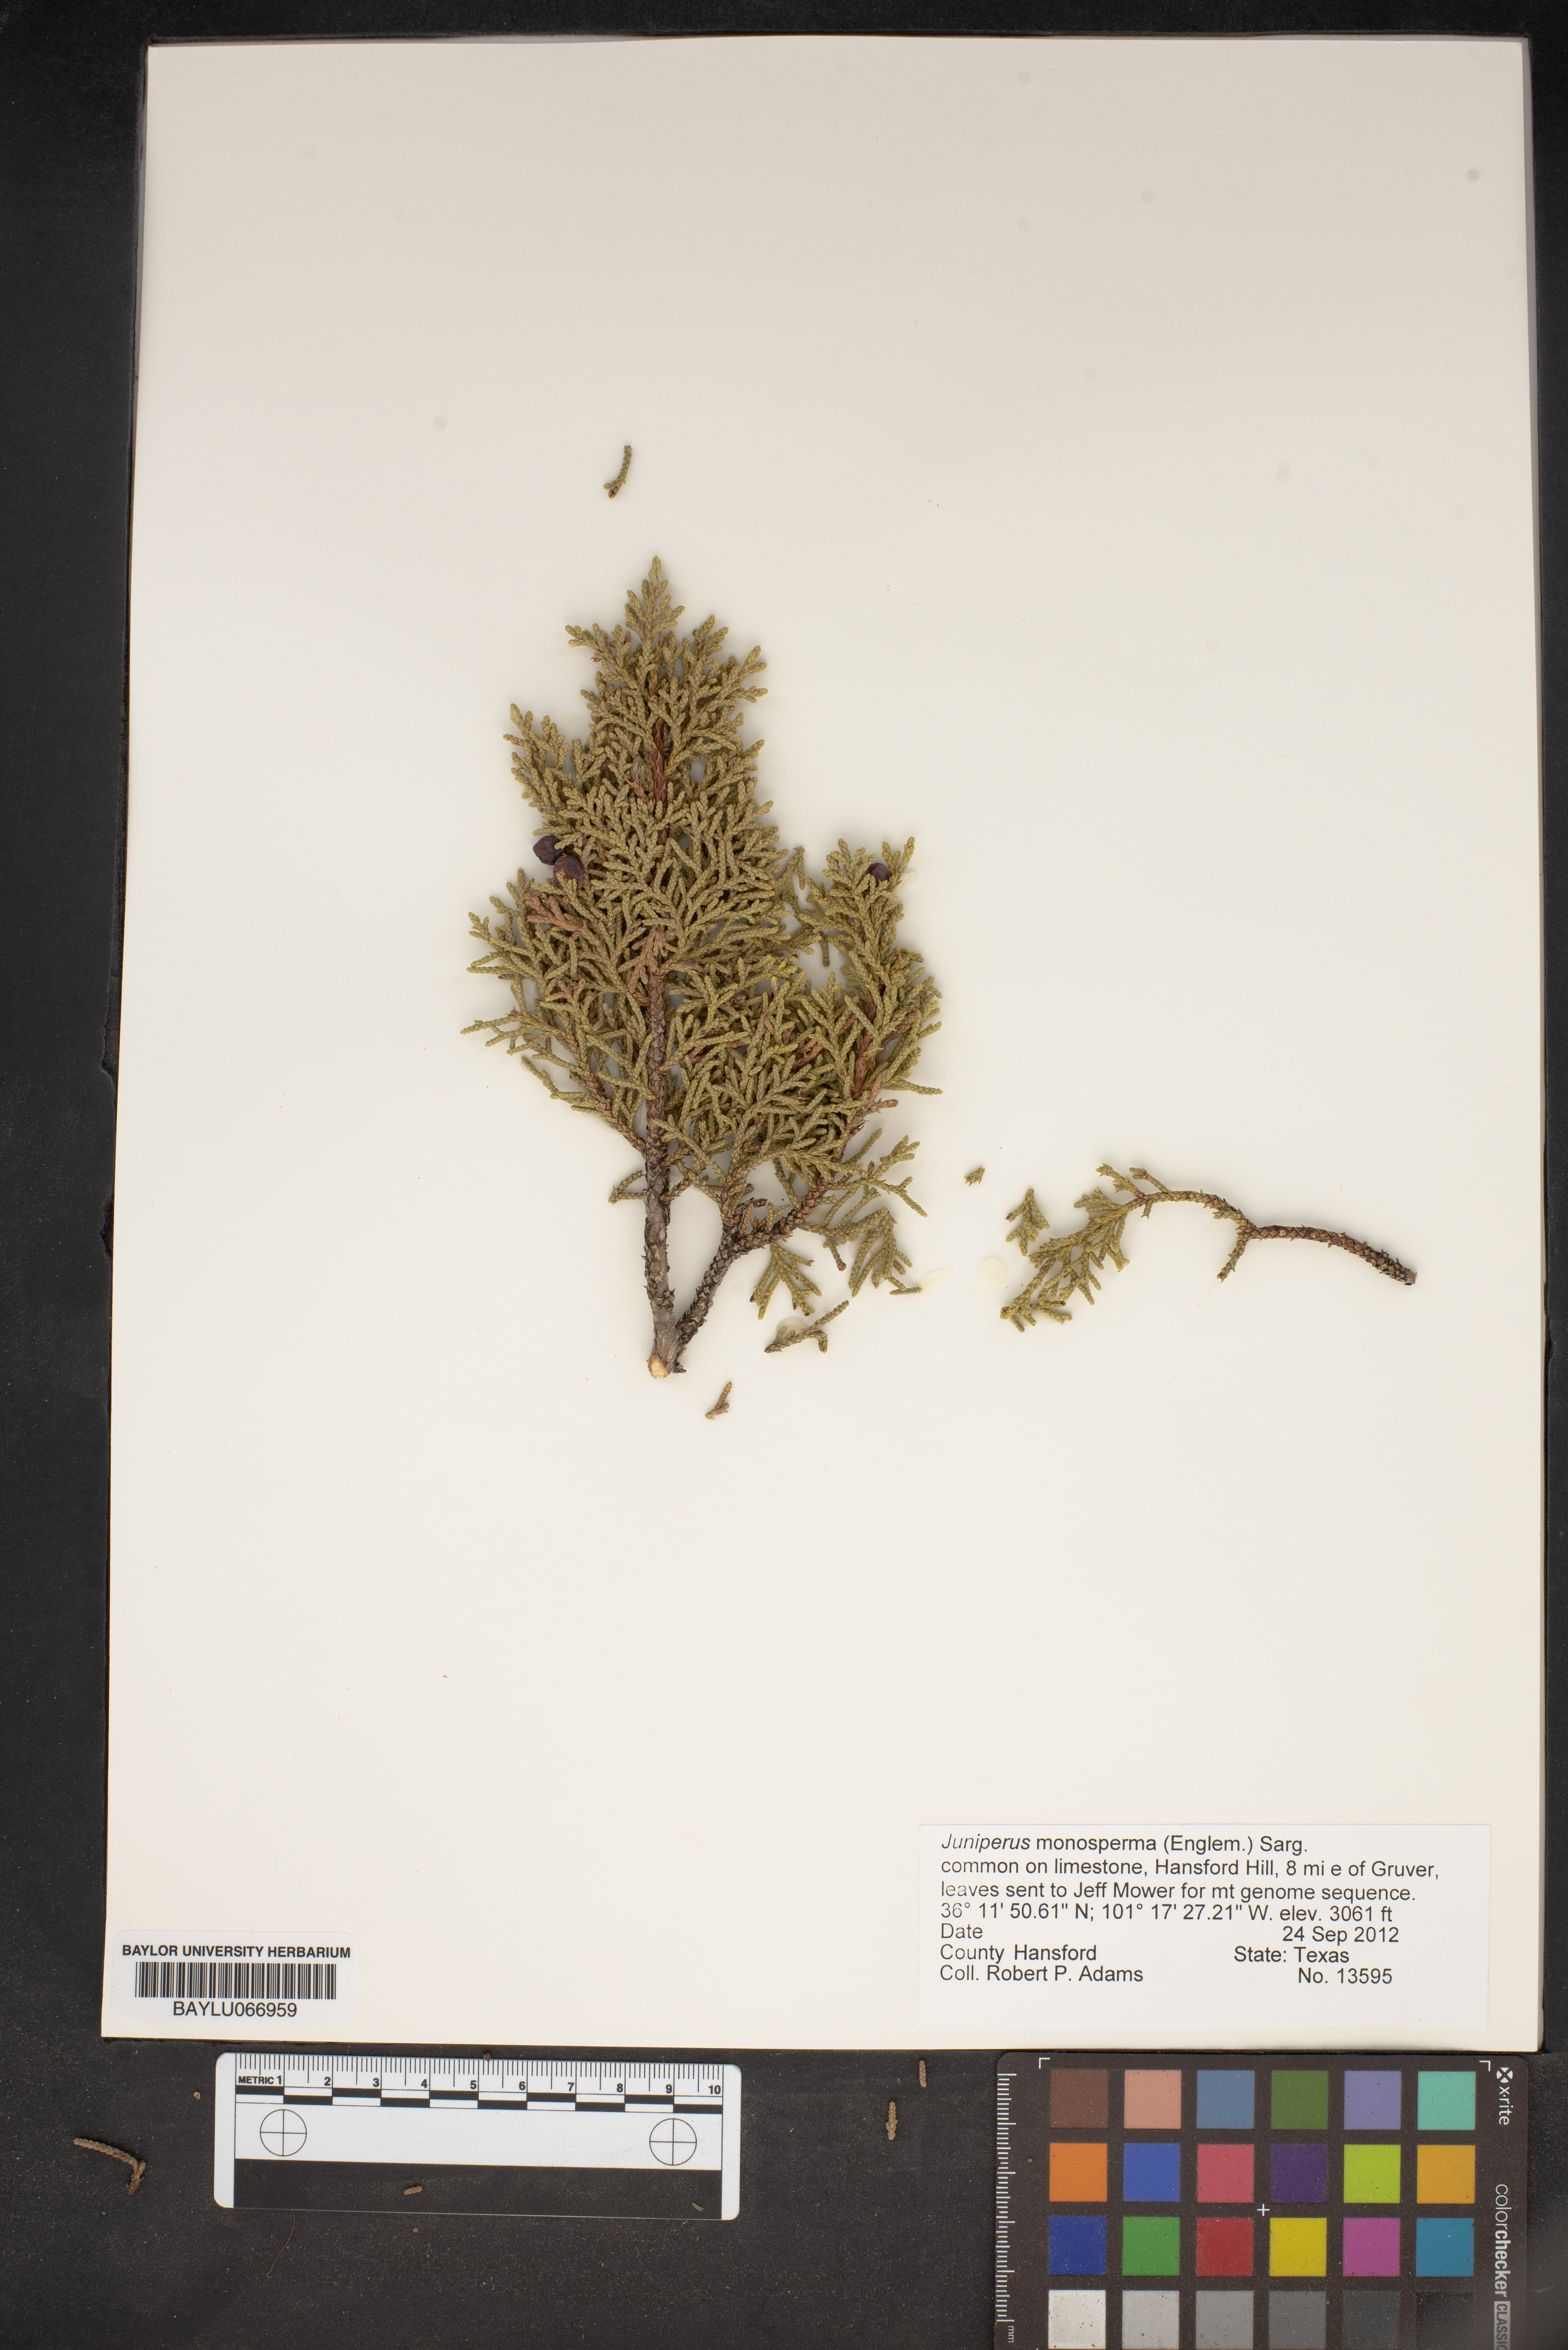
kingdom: Plantae
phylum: Tracheophyta
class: Pinopsida
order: Pinales
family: Cupressaceae
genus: Juniperus
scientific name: Juniperus monosperma
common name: One-seed juniper
